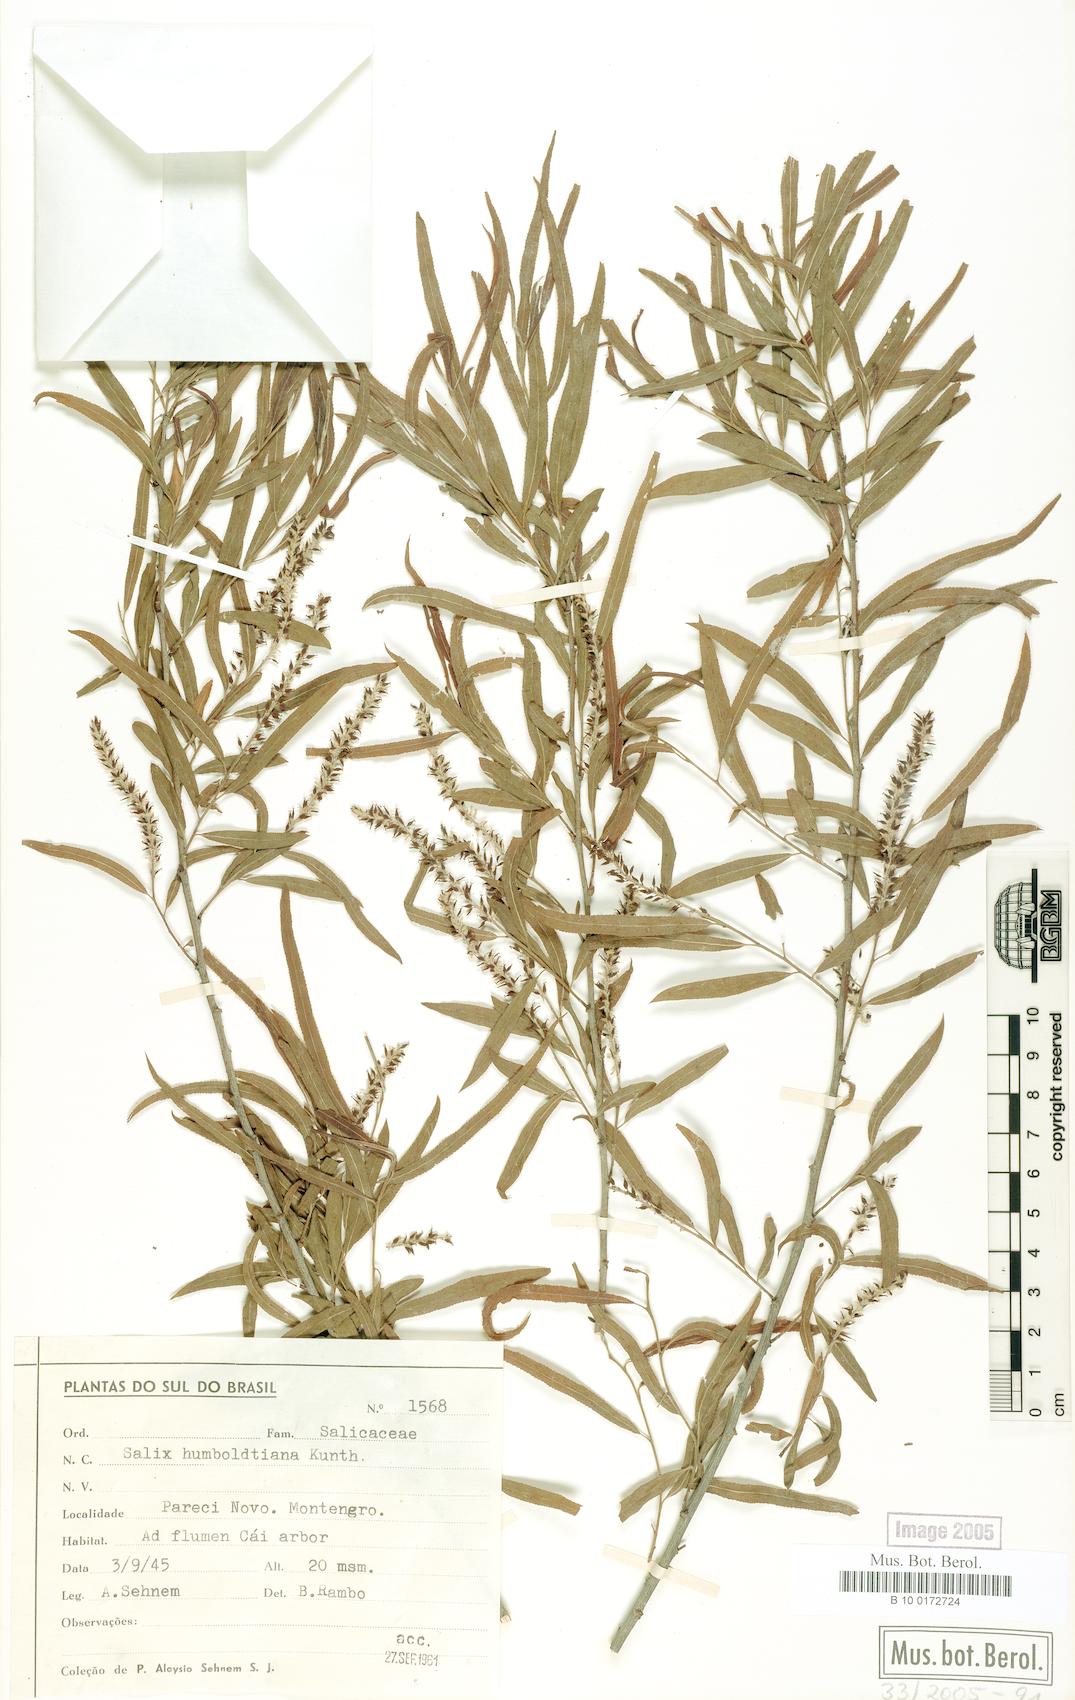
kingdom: Plantae
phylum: Tracheophyta
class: Magnoliopsida
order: Malpighiales
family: Salicaceae
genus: Salix
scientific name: Salix humboldtiana
